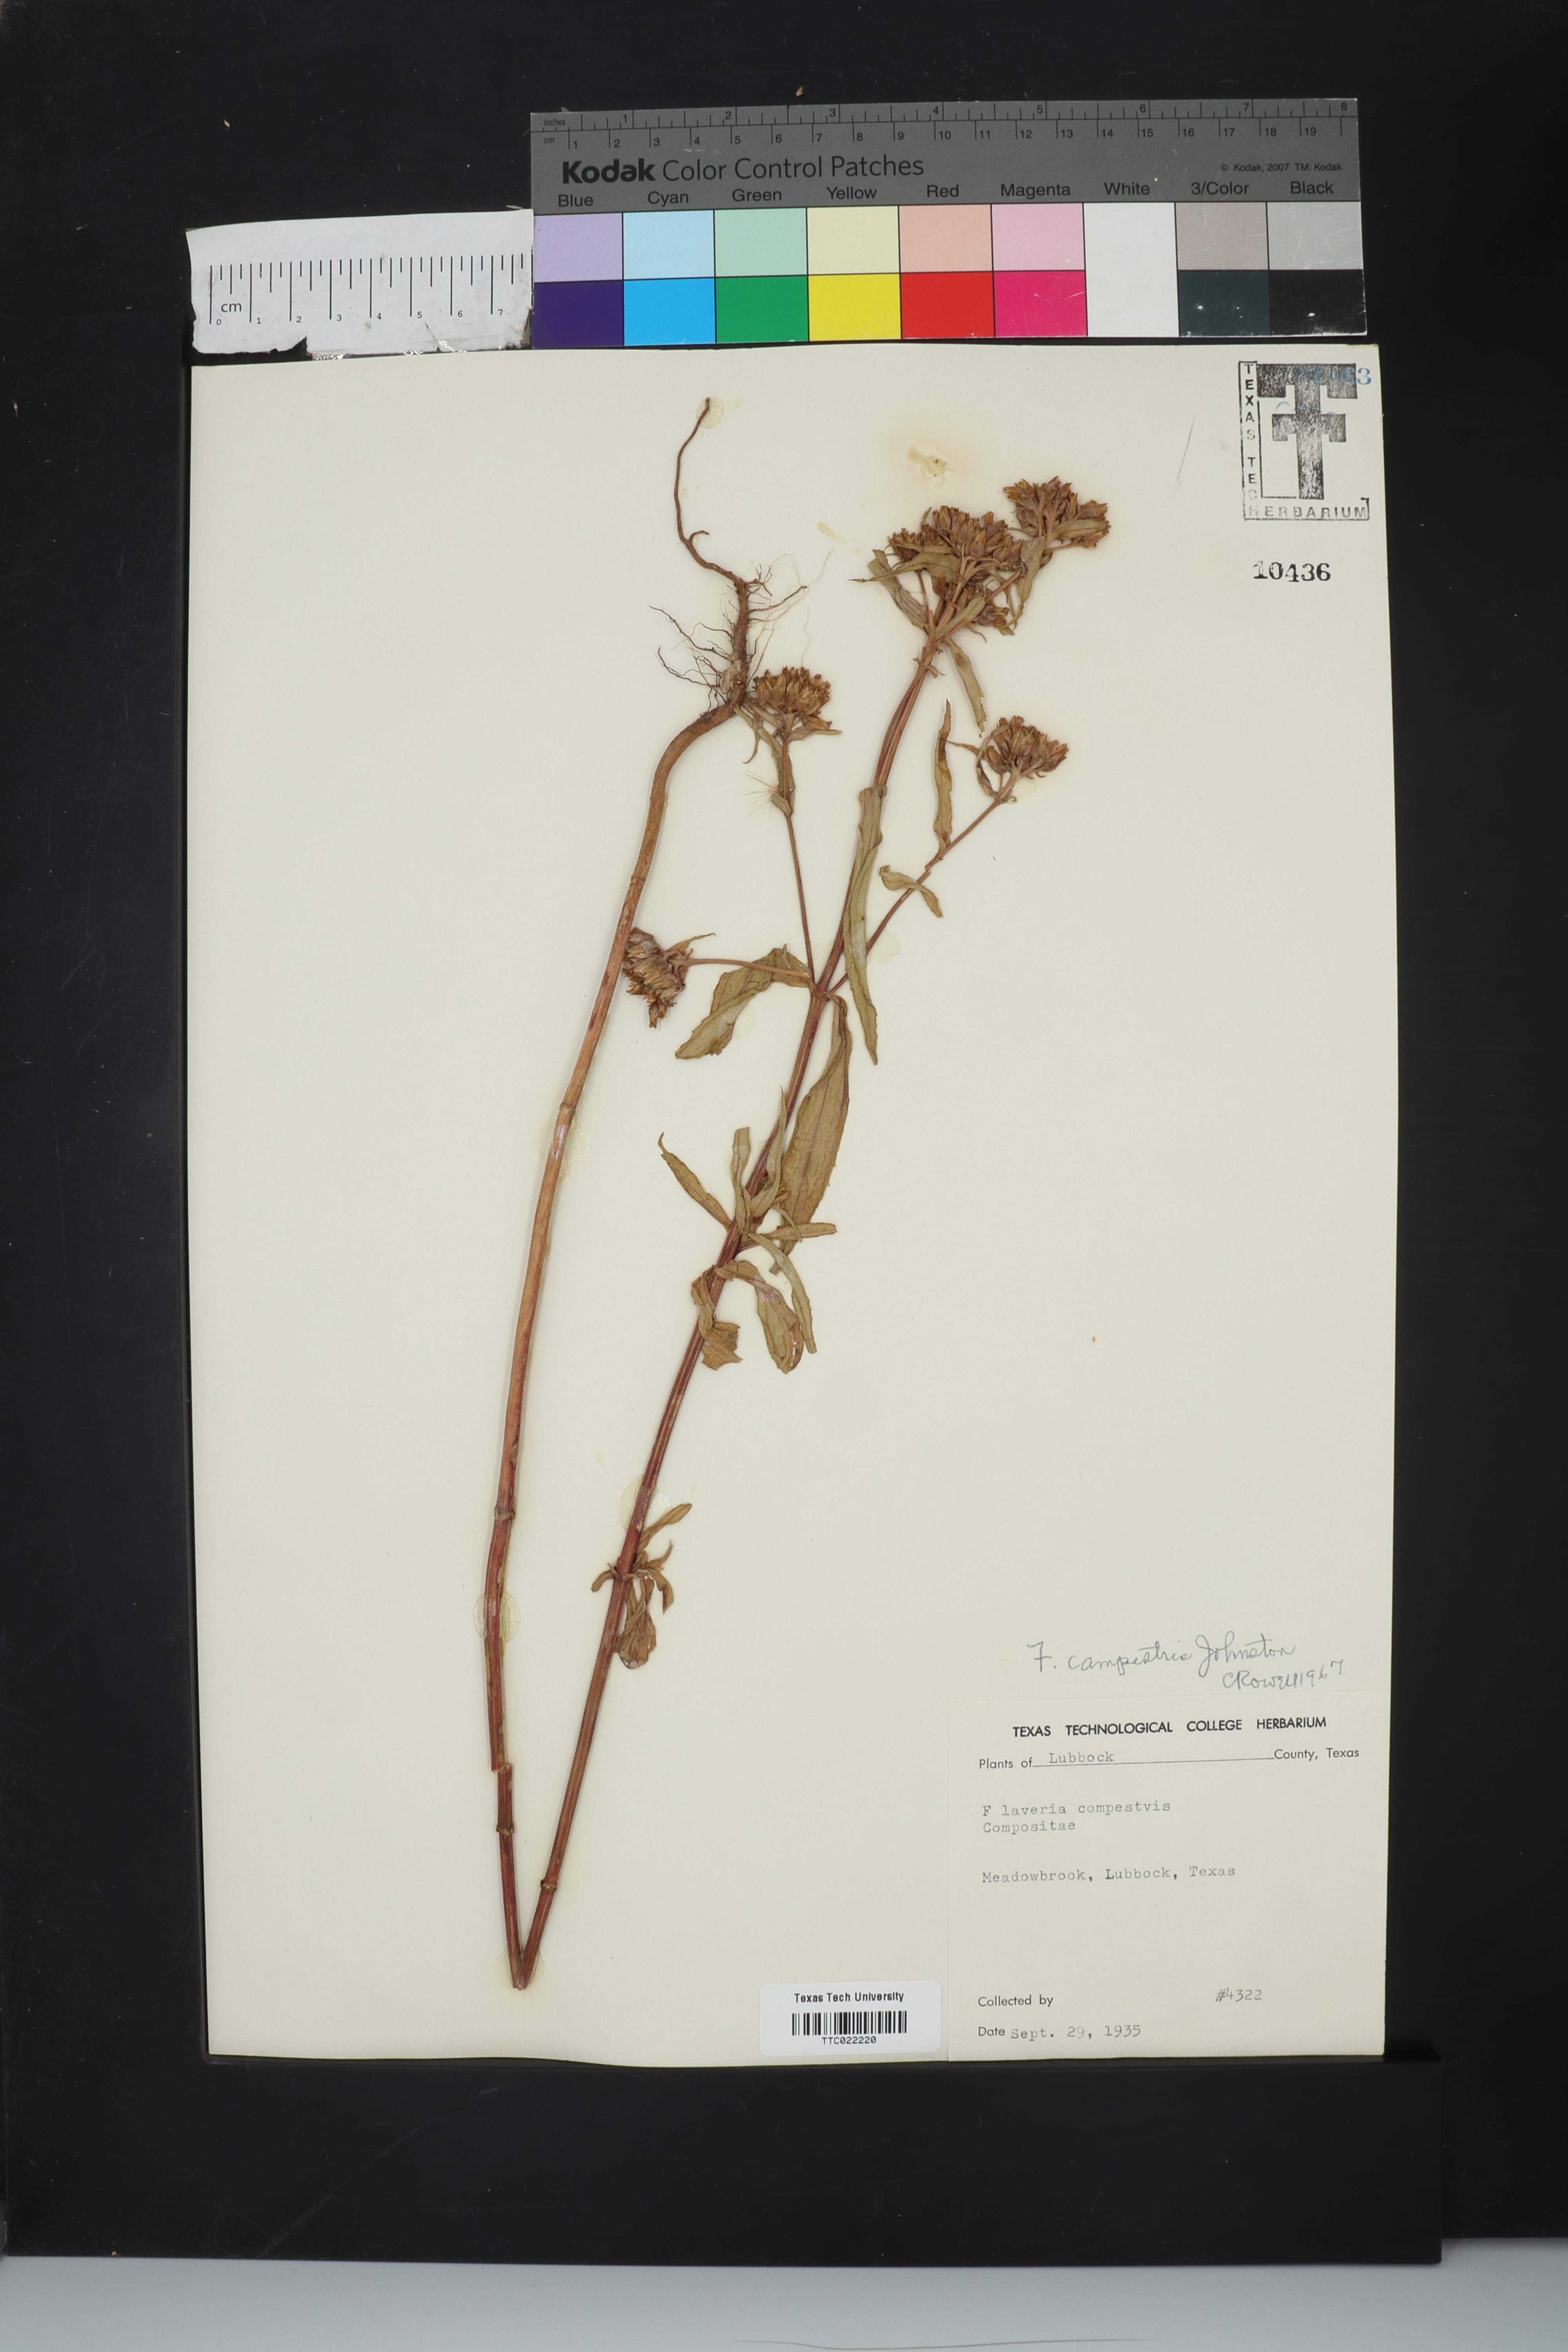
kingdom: Plantae
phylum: Tracheophyta
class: Magnoliopsida
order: Asterales
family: Asteraceae
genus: Flaveria
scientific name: Flaveria campestris
